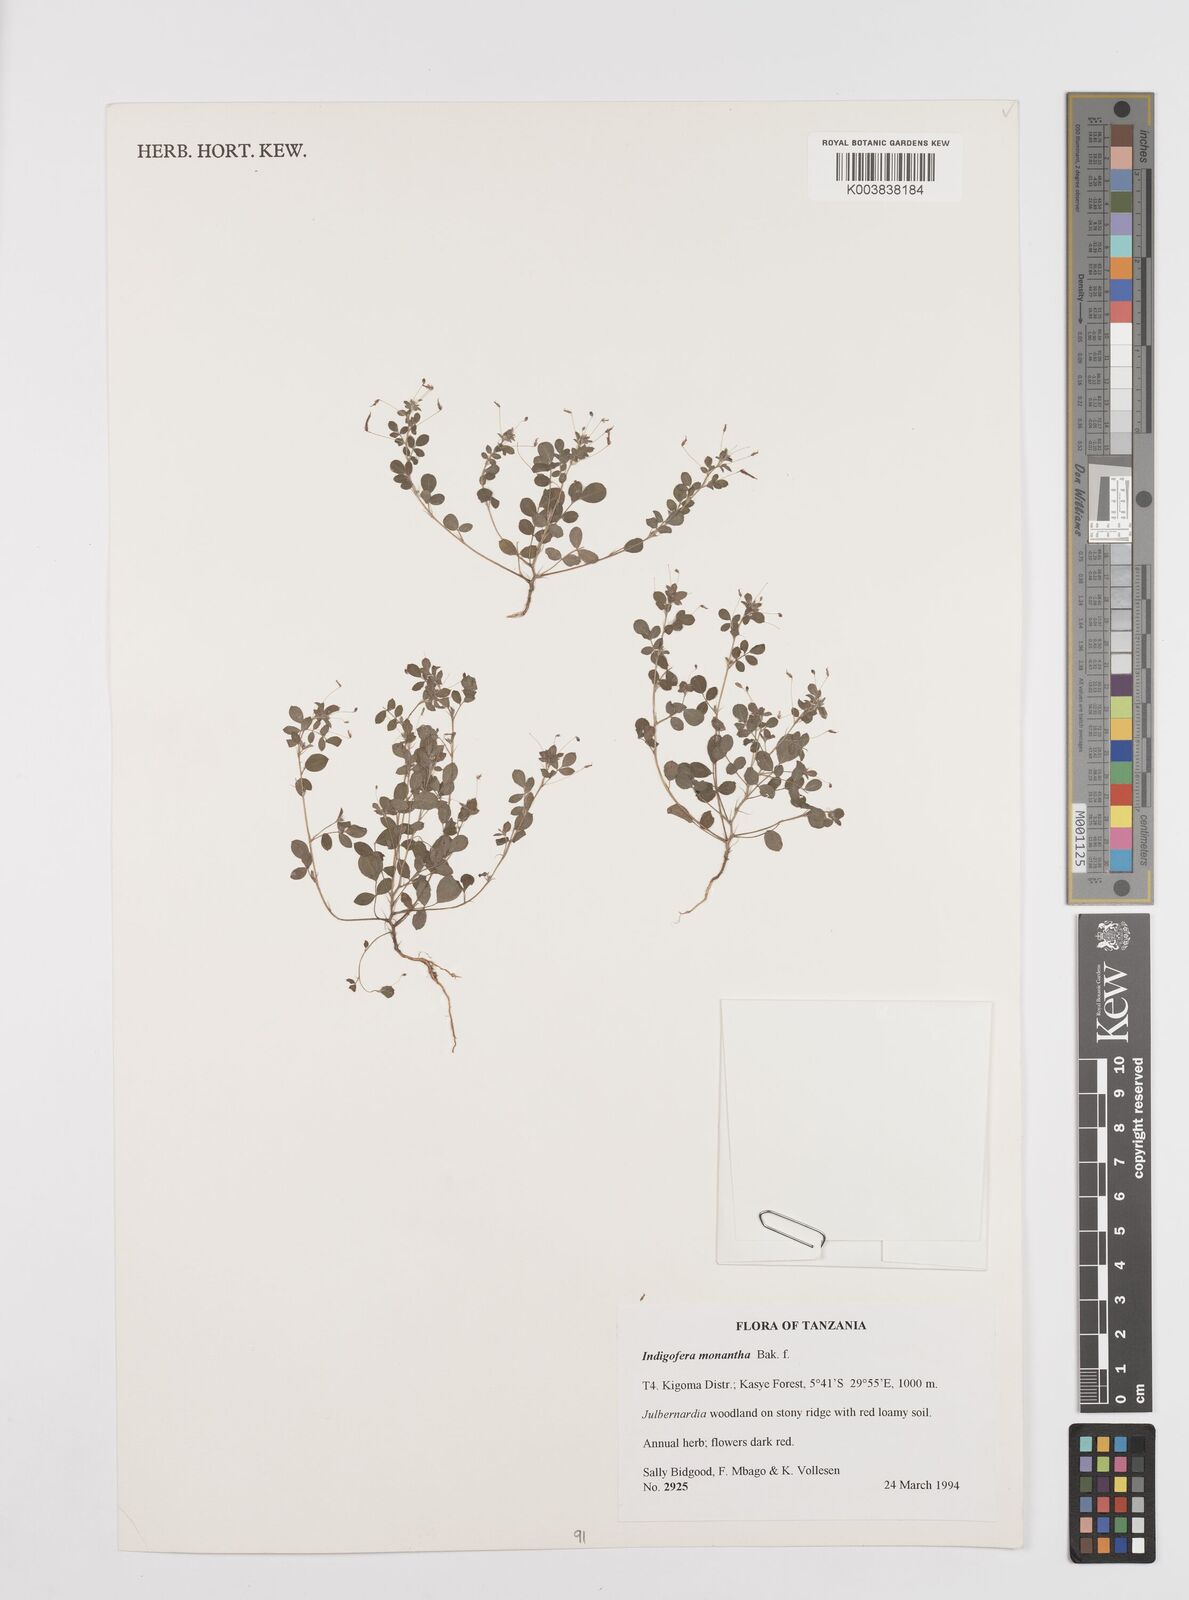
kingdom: Plantae
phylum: Tracheophyta
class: Magnoliopsida
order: Fabales
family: Fabaceae
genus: Indigofera
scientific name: Indigofera monantha
